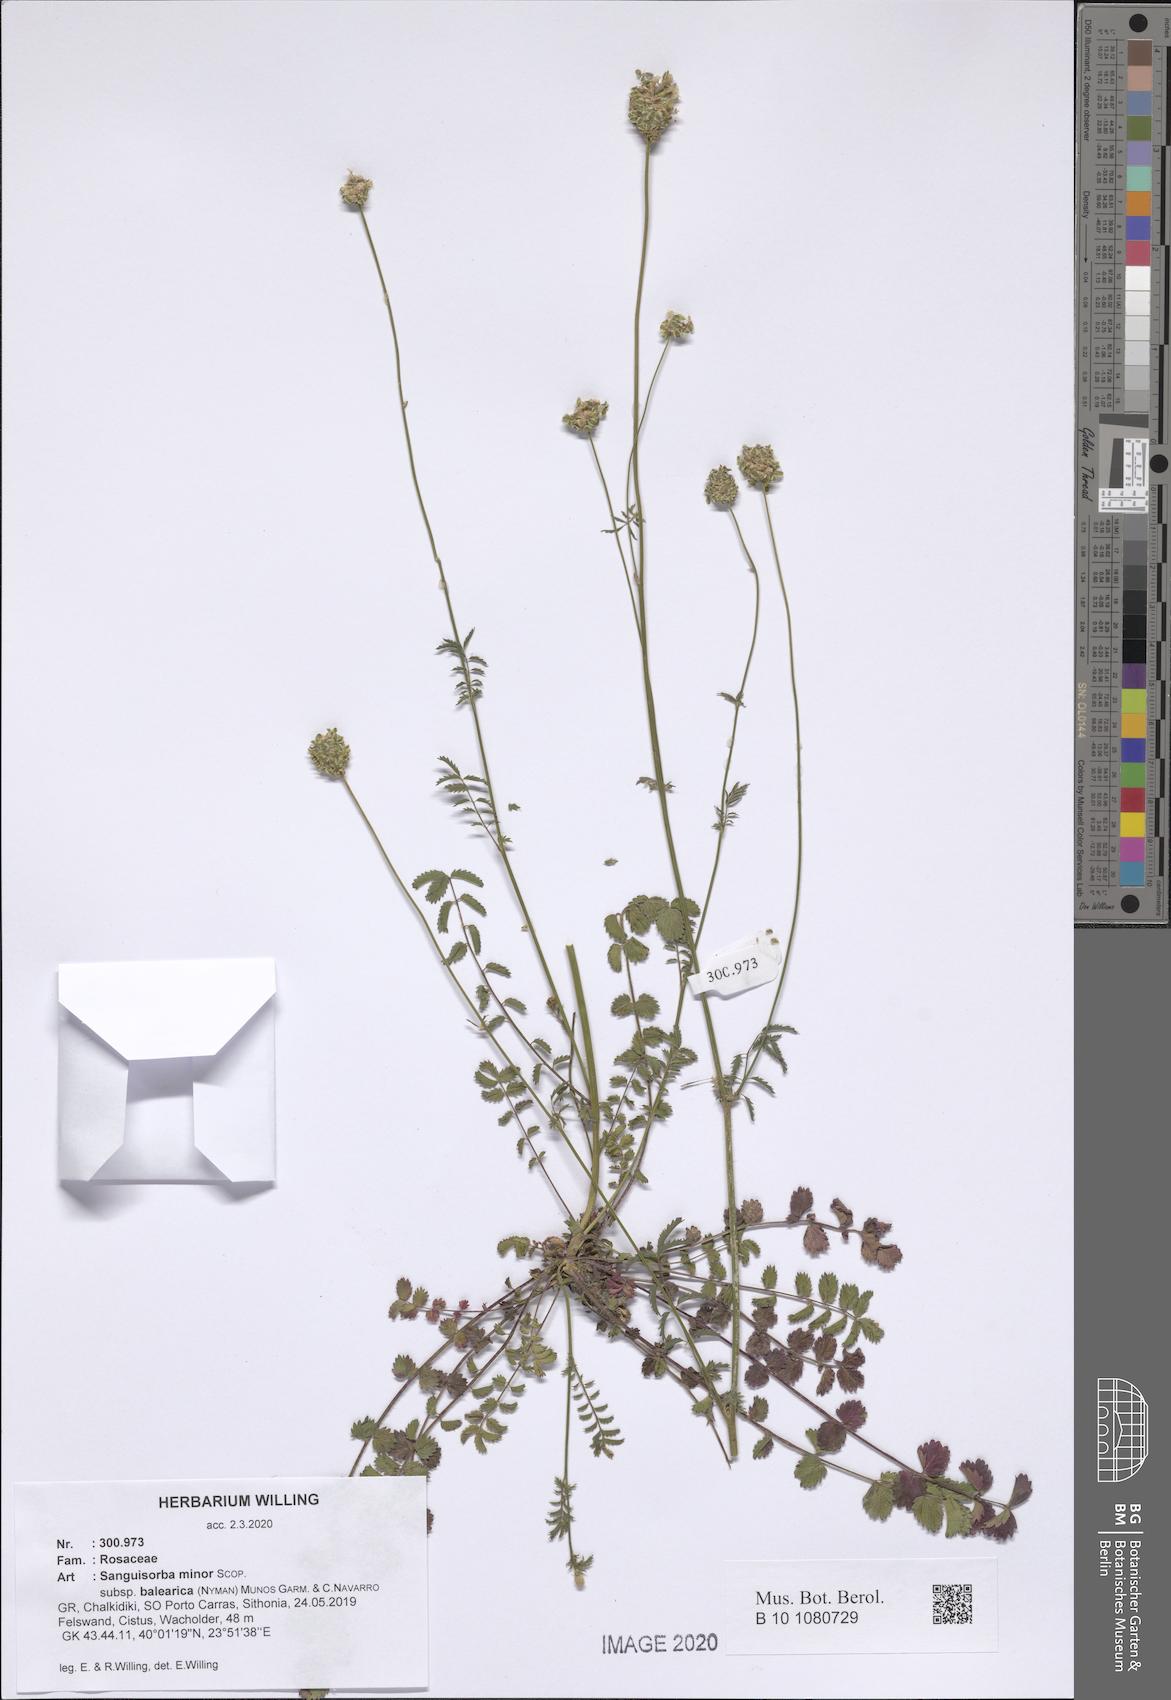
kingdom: Plantae
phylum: Tracheophyta
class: Magnoliopsida
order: Rosales
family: Rosaceae
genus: Poterium
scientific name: Poterium sanguisorba
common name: Salad burnet
